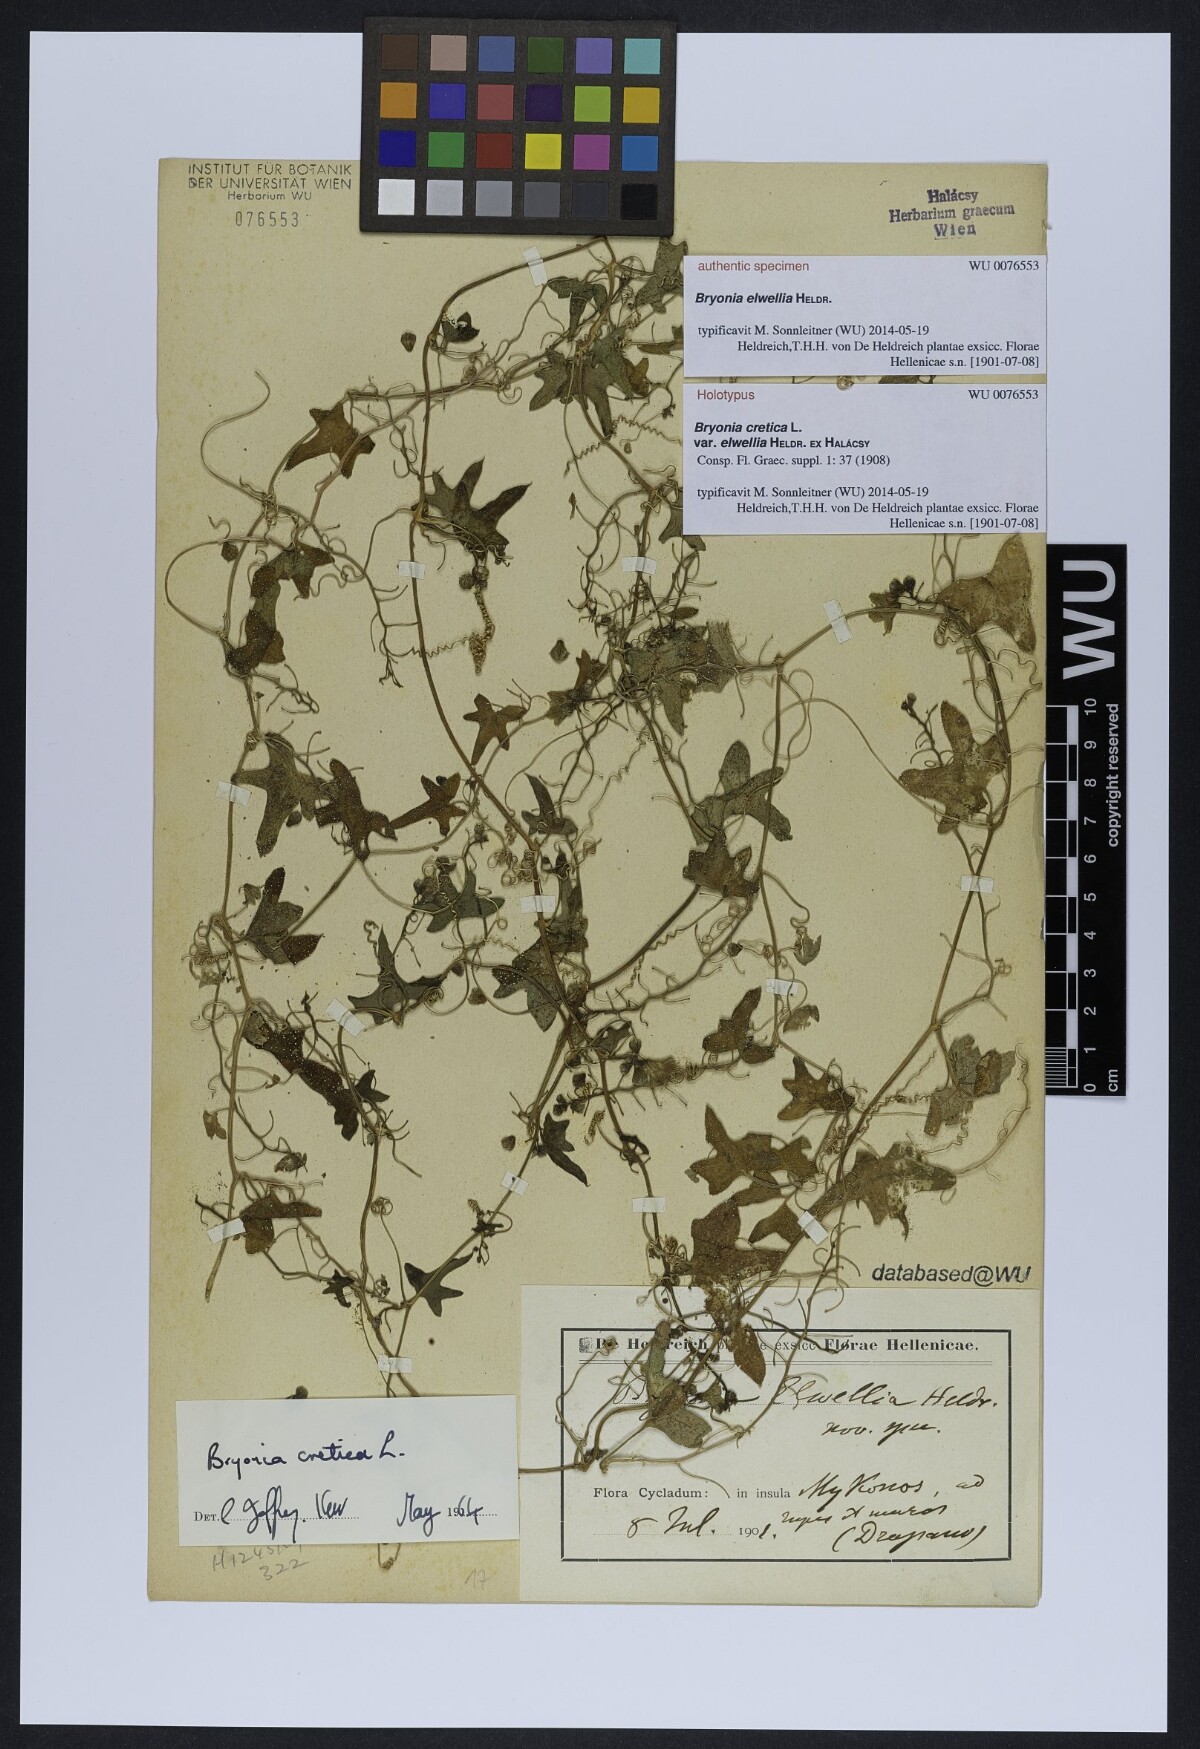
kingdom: Plantae
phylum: Tracheophyta
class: Magnoliopsida
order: Cucurbitales
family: Cucurbitaceae
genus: Bryonia
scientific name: Bryonia cretica
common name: Cretan bryony
